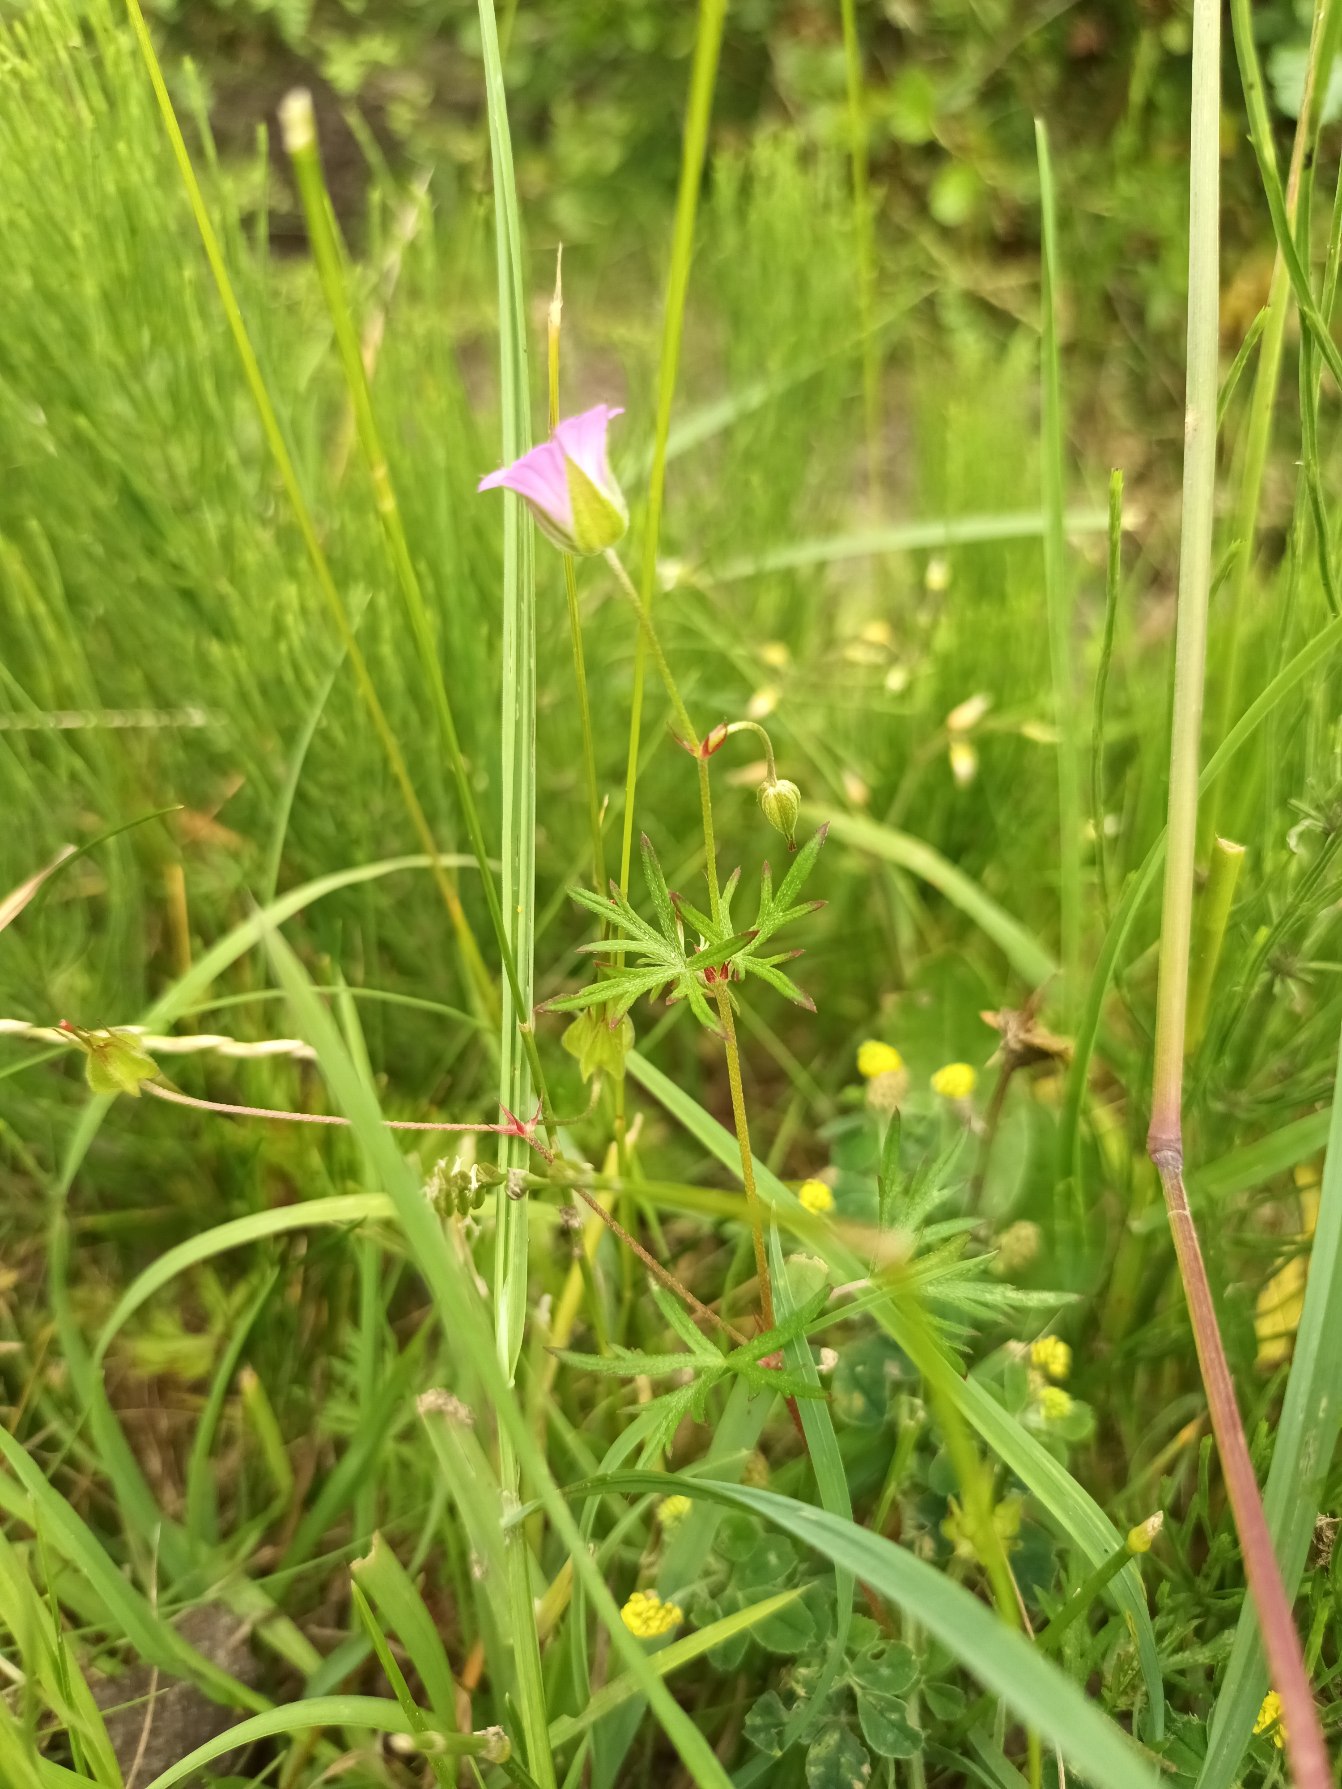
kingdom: Plantae
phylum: Tracheophyta
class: Magnoliopsida
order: Geraniales
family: Geraniaceae
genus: Geranium
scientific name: Geranium columbinum
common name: Storbægret storkenæb
